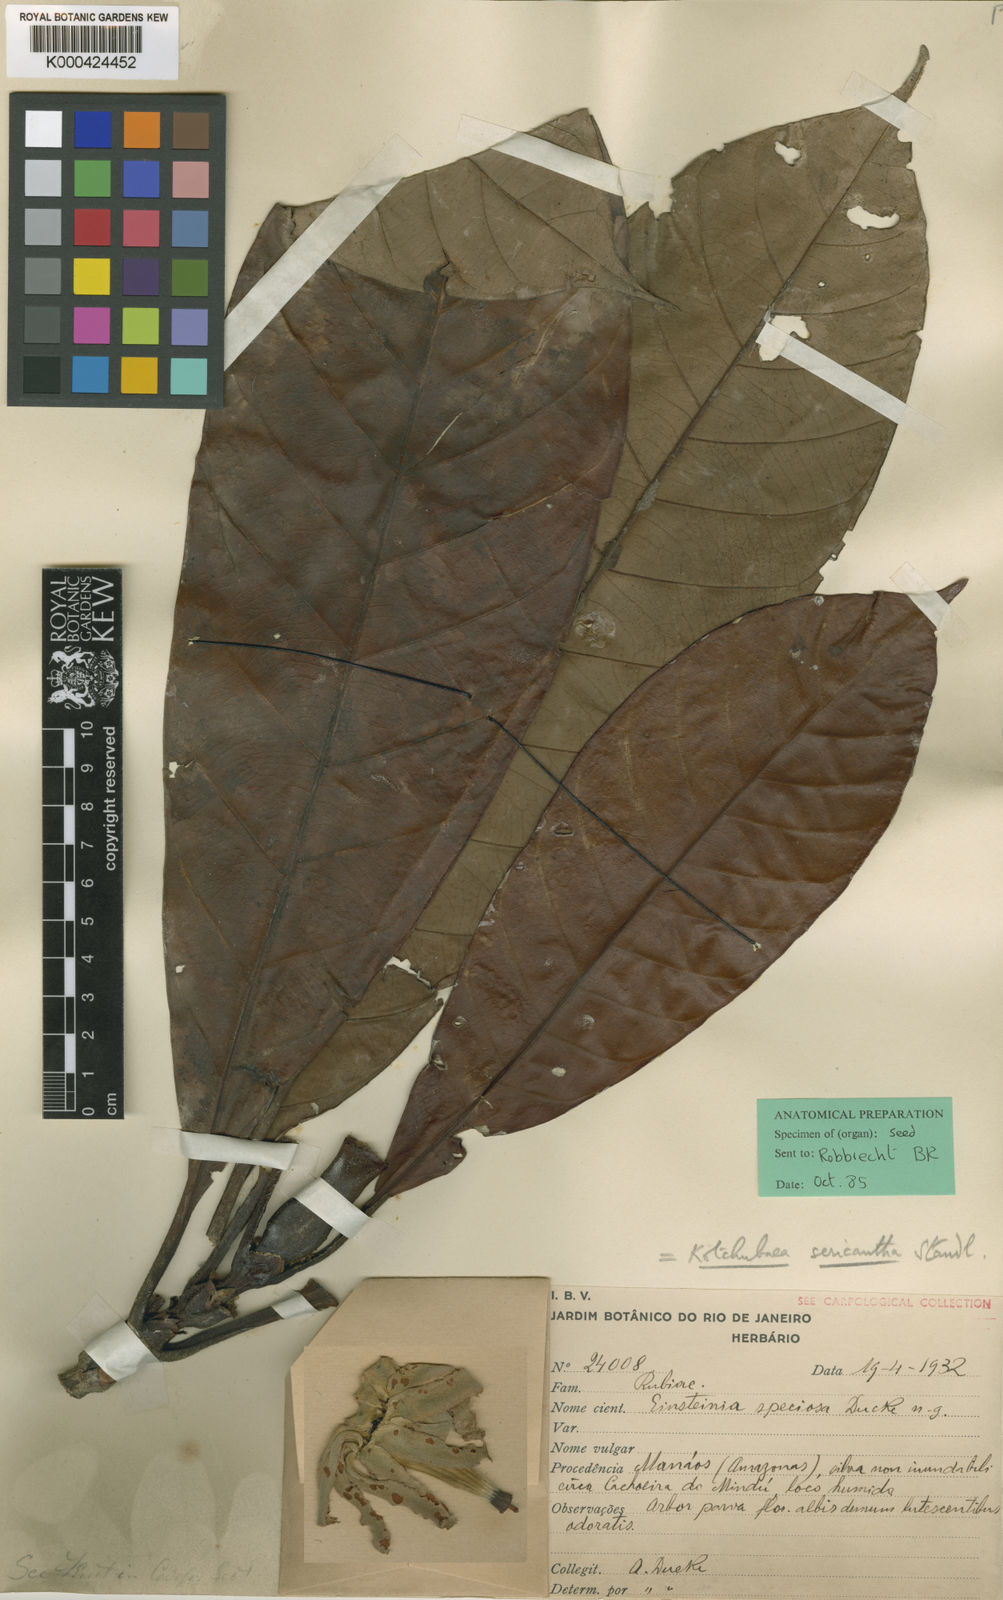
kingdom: Plantae
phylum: Tracheophyta
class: Magnoliopsida
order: Gentianales
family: Rubiaceae
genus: Kutchubaea
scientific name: Kutchubaea sericantha
